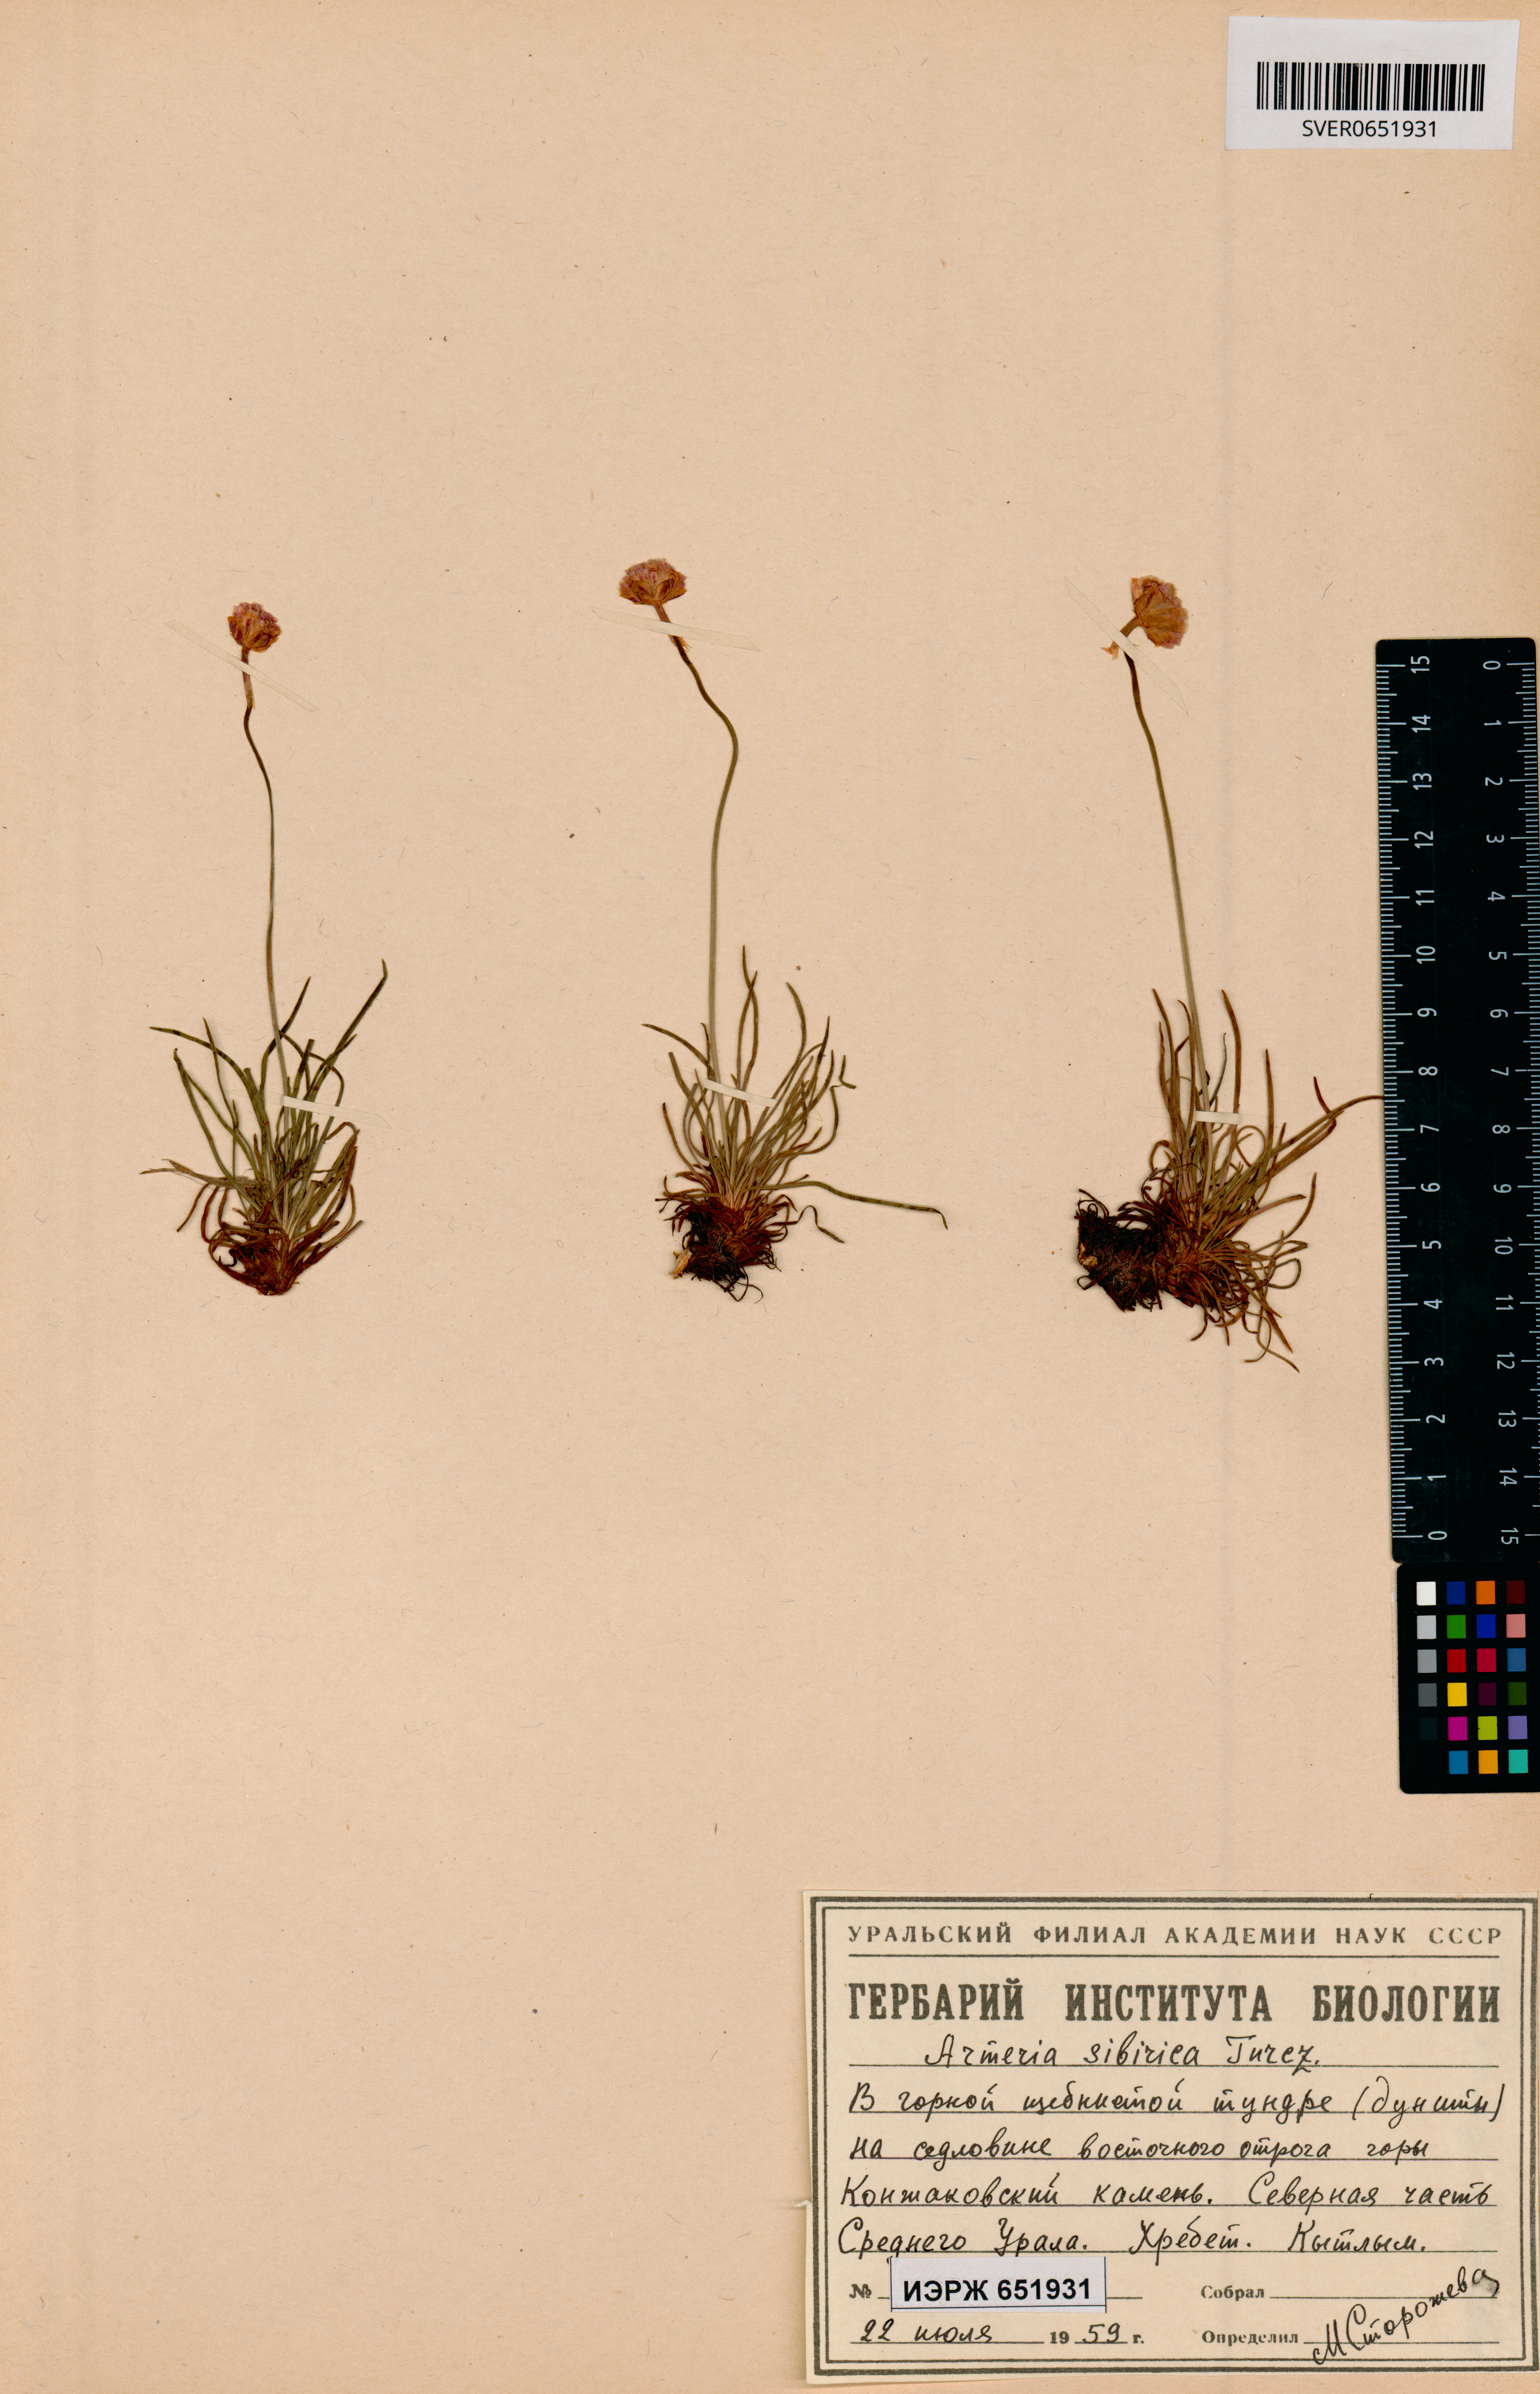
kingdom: Plantae
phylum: Tracheophyta
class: Magnoliopsida
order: Caryophyllales
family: Plumbaginaceae
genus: Armeria
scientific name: Armeria maritima
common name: Thrift
